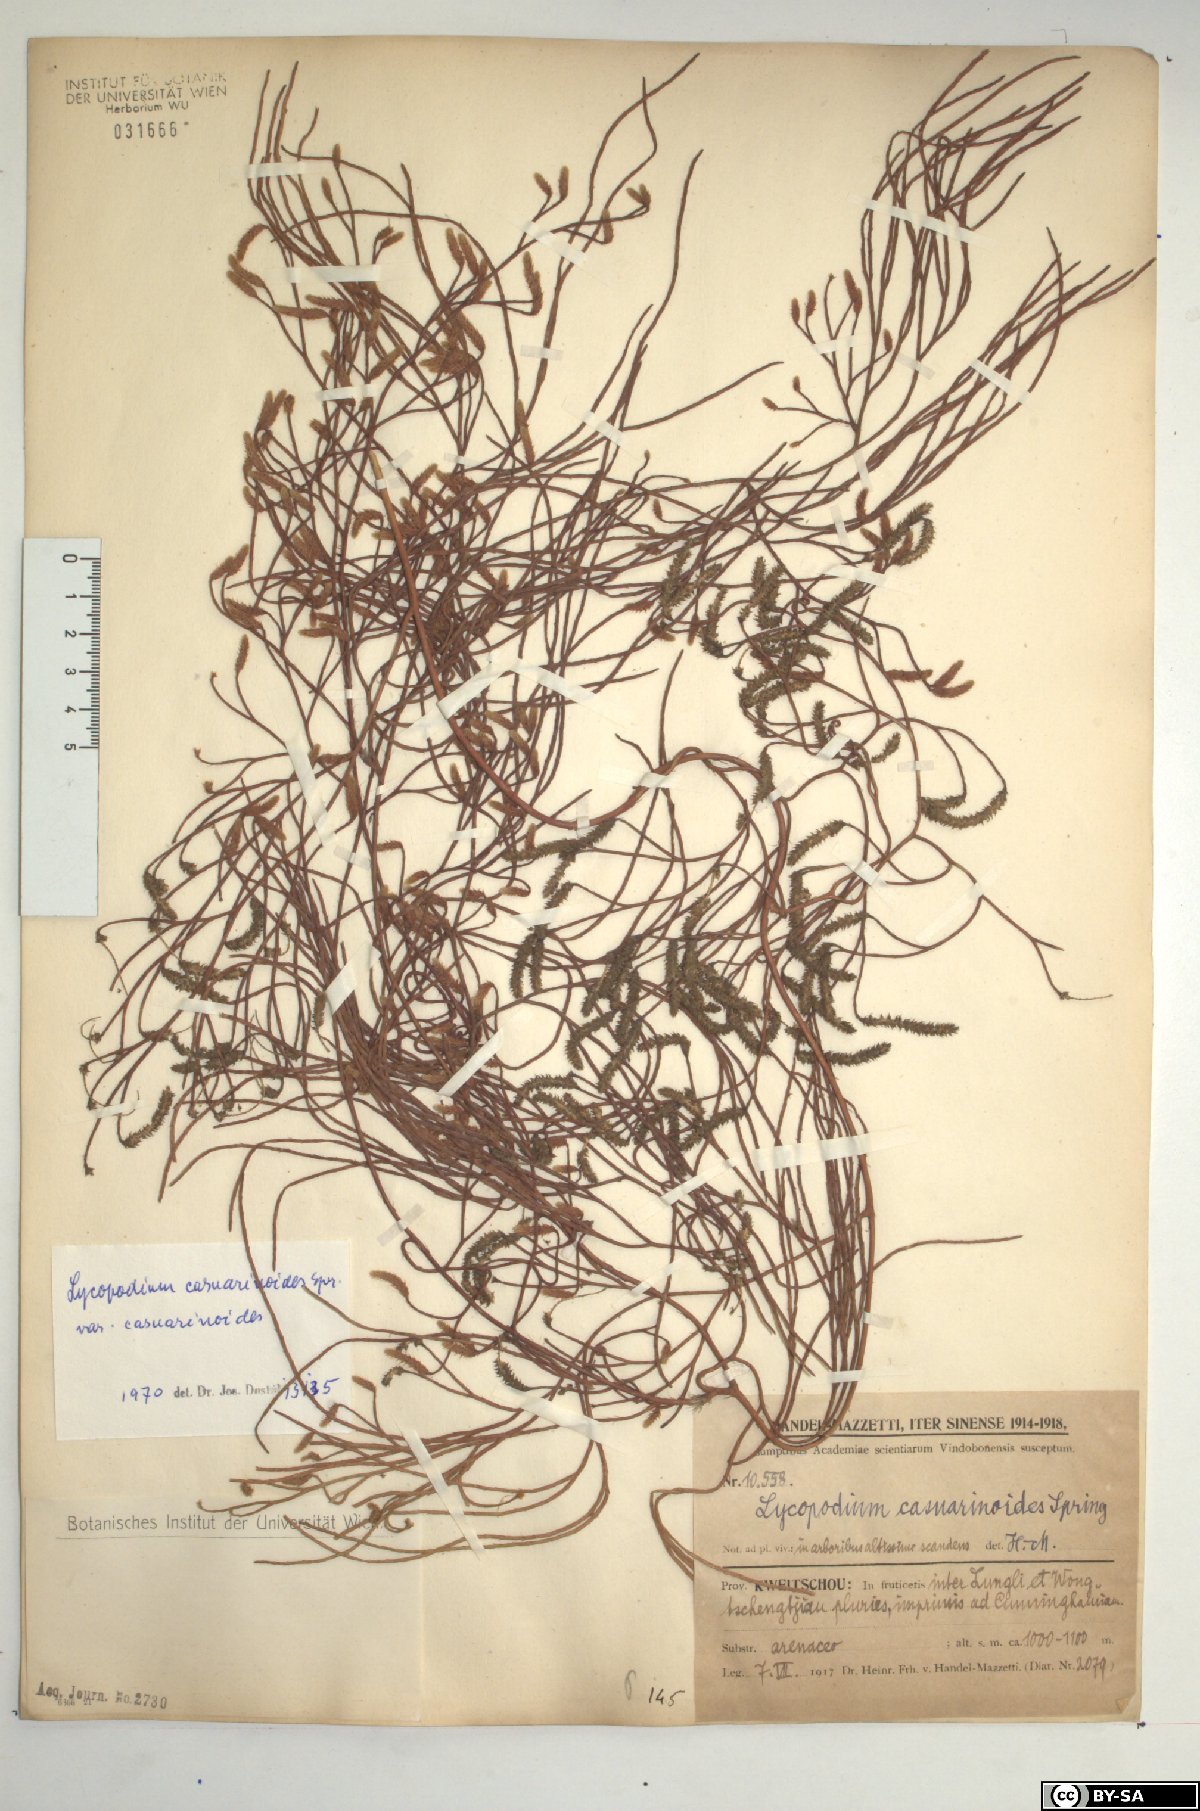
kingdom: Plantae
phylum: Tracheophyta
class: Lycopodiopsida
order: Lycopodiales
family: Lycopodiaceae
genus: Lycopodiastrum
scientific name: Lycopodiastrum casuarinoides
